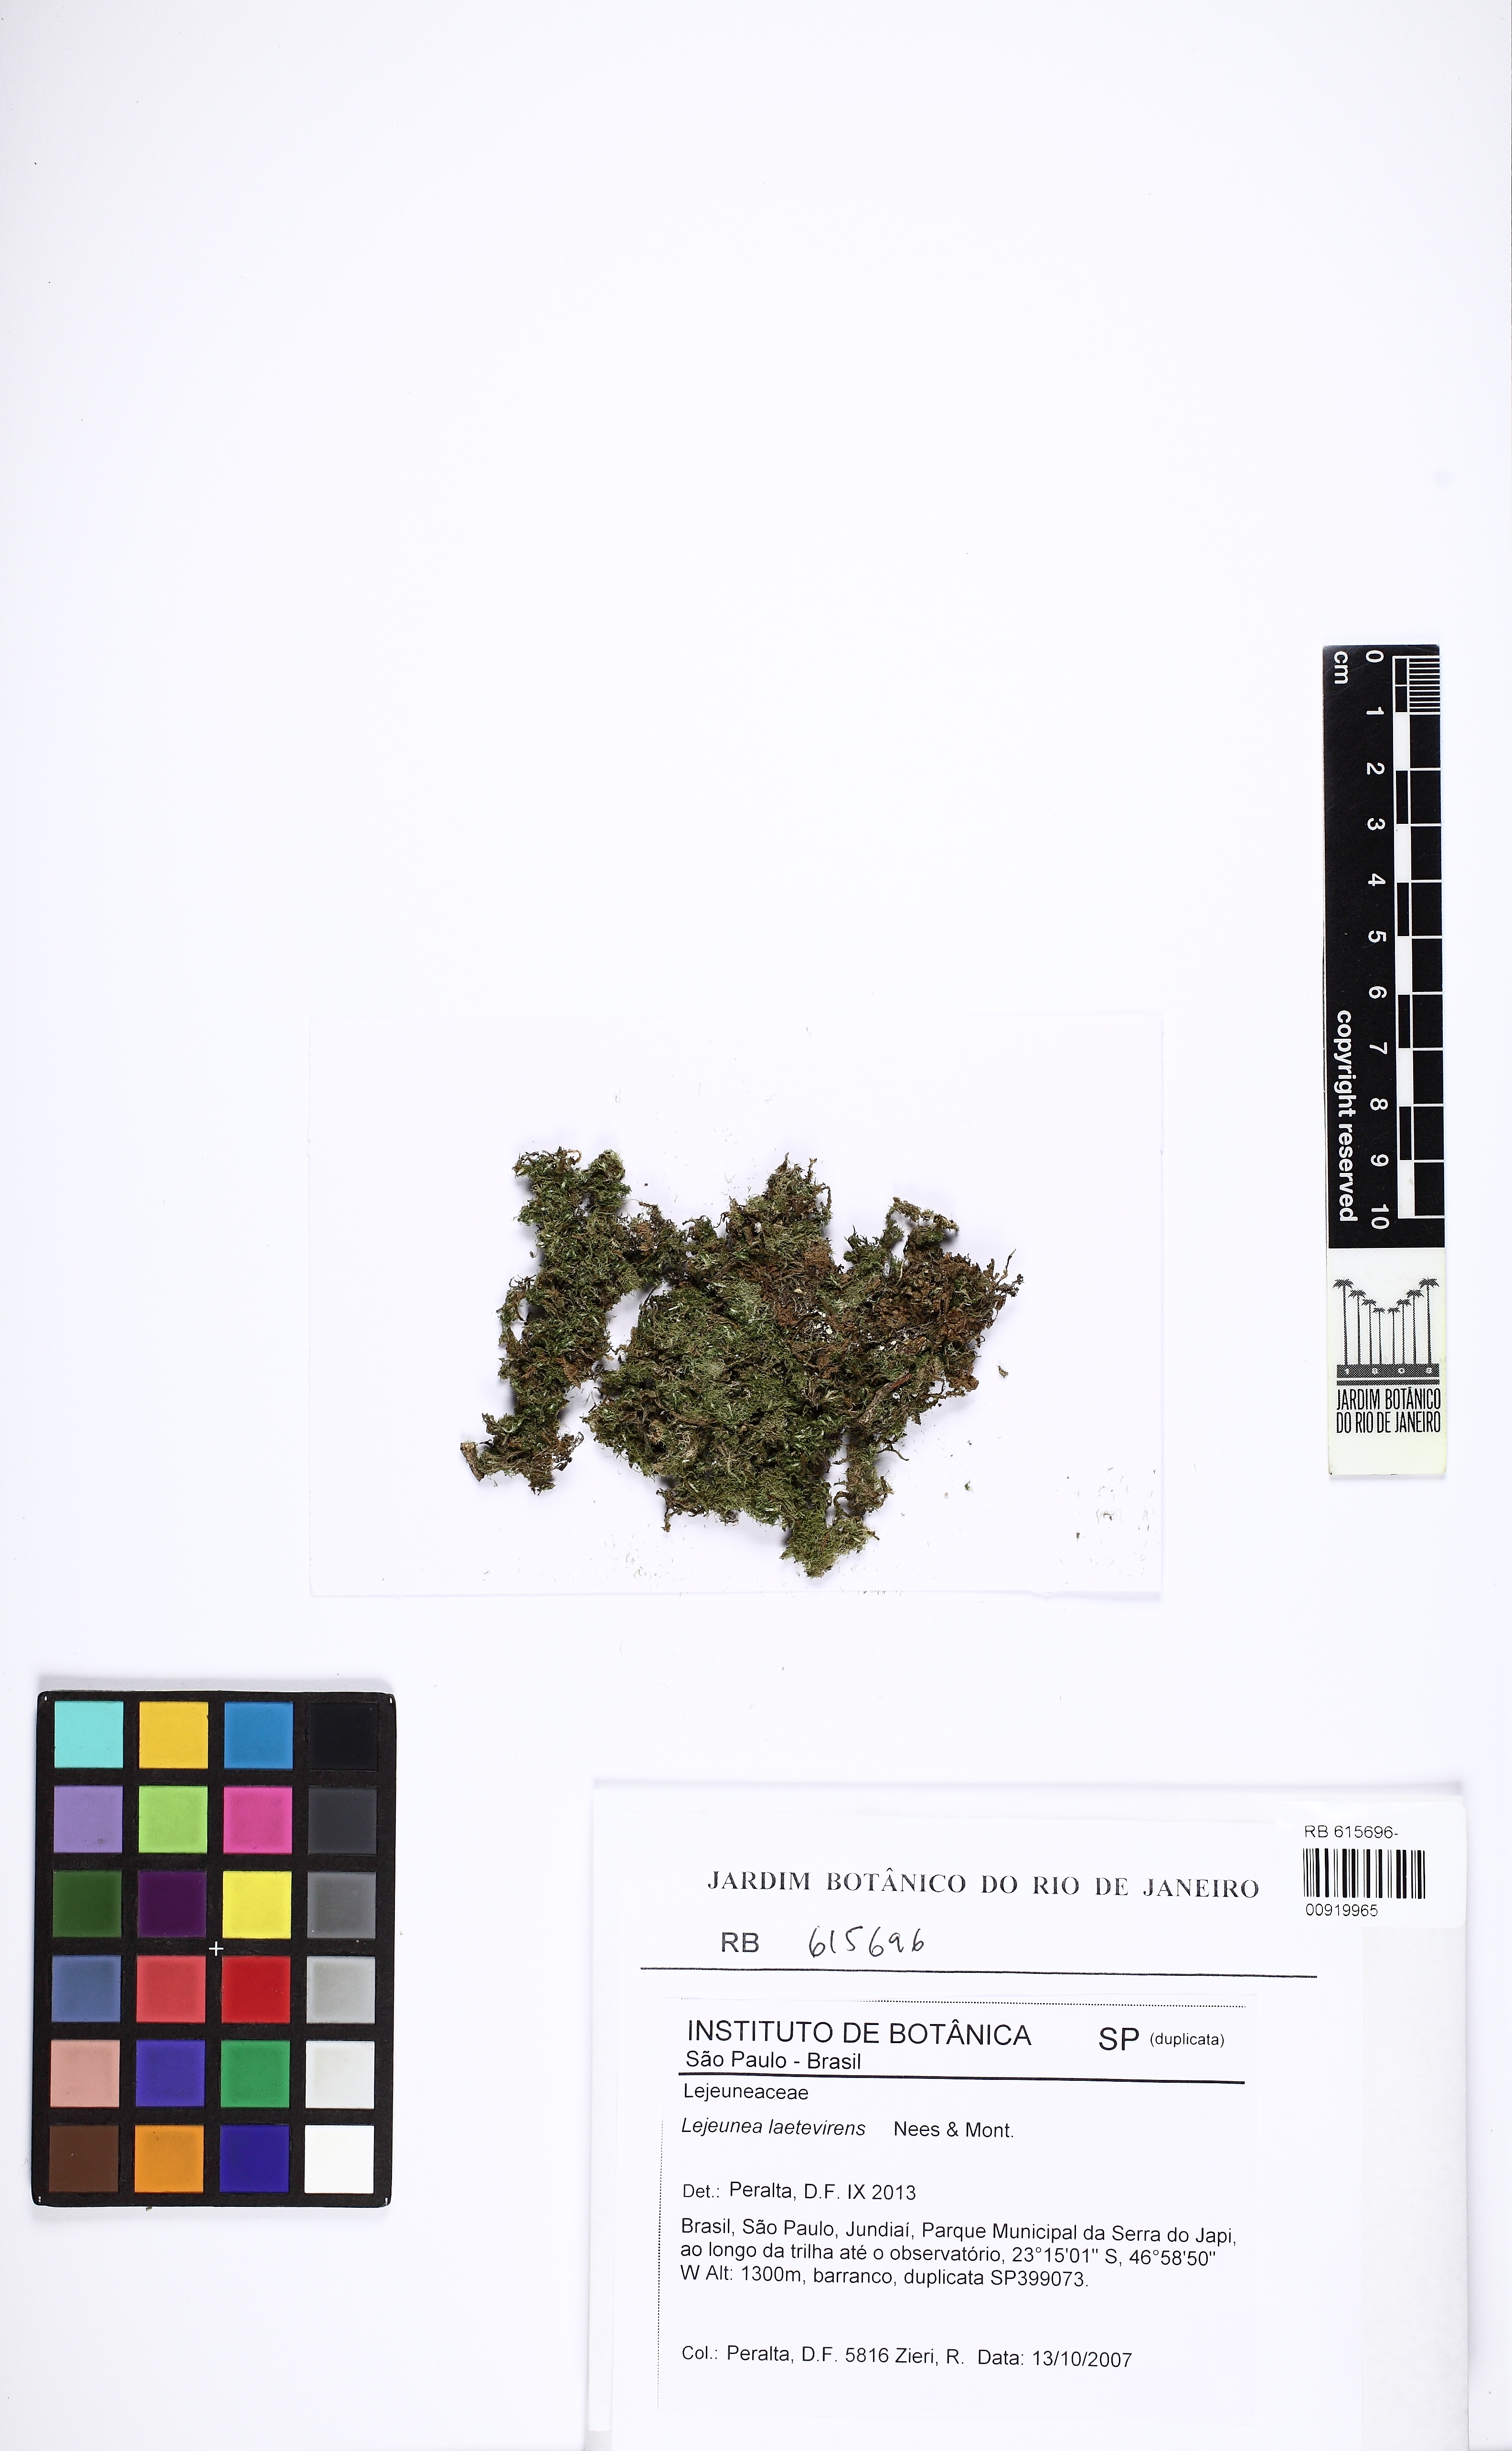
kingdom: Plantae
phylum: Marchantiophyta
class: Jungermanniopsida
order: Porellales
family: Lejeuneaceae
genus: Lejeunea
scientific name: Lejeunea laetevirens
